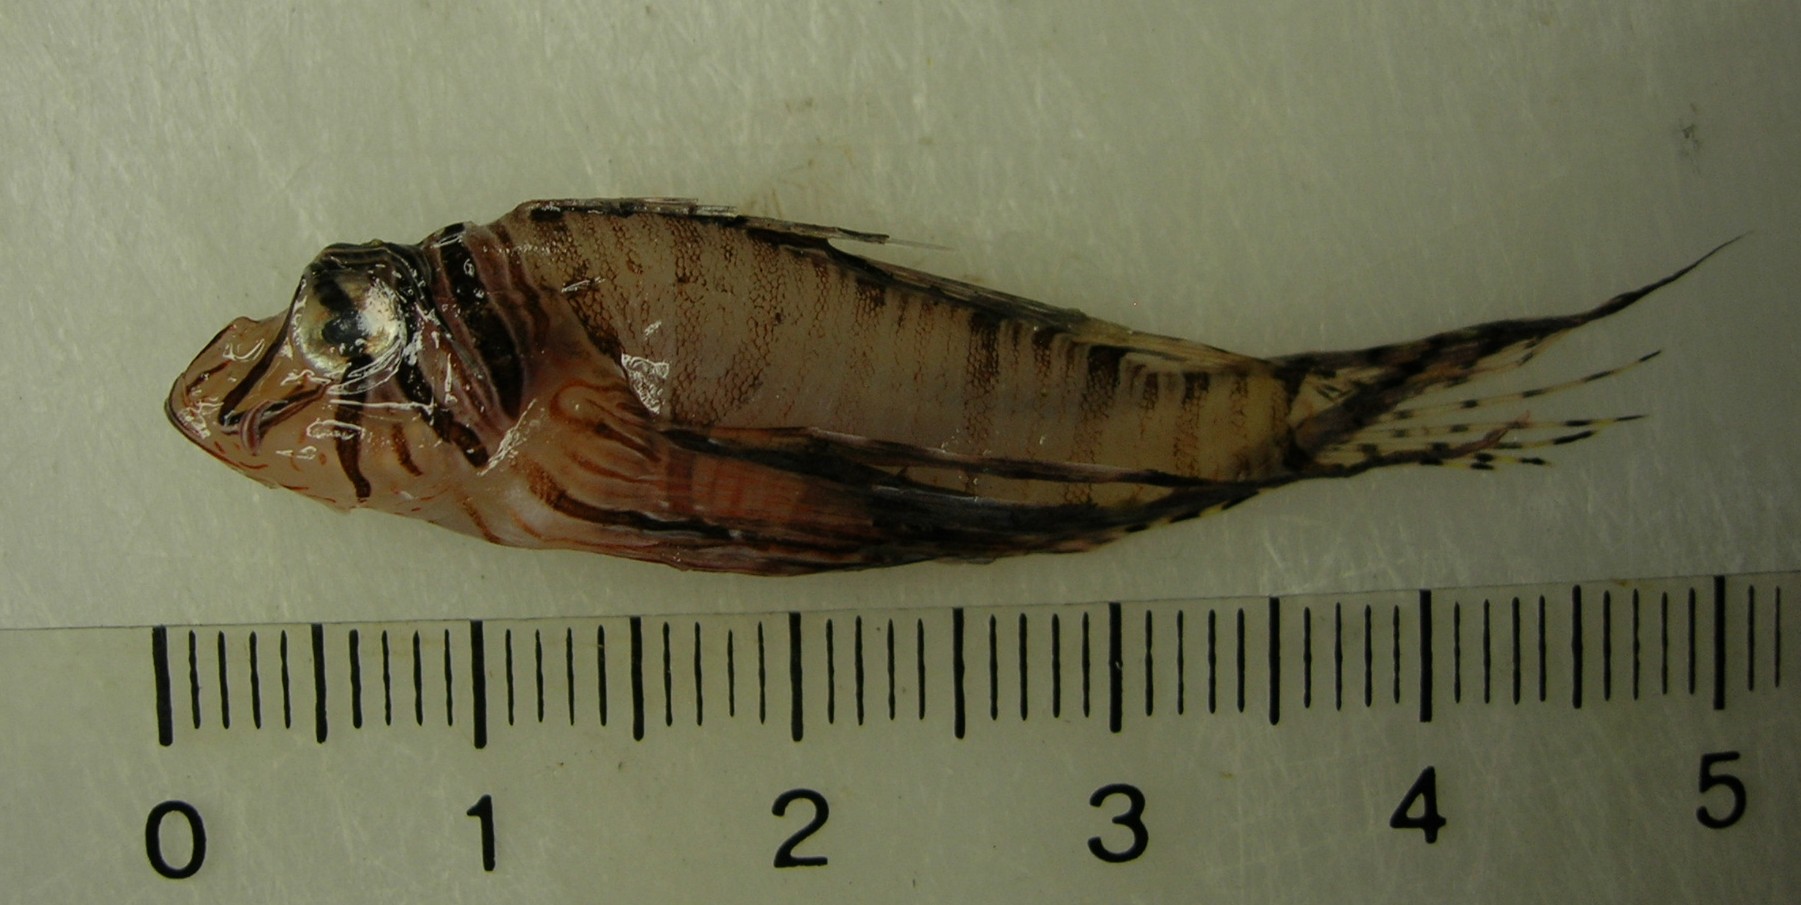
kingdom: Animalia
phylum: Chordata
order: Scorpaeniformes
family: Scorpaenidae
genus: Pterois
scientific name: Pterois miles
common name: Devil firefish
